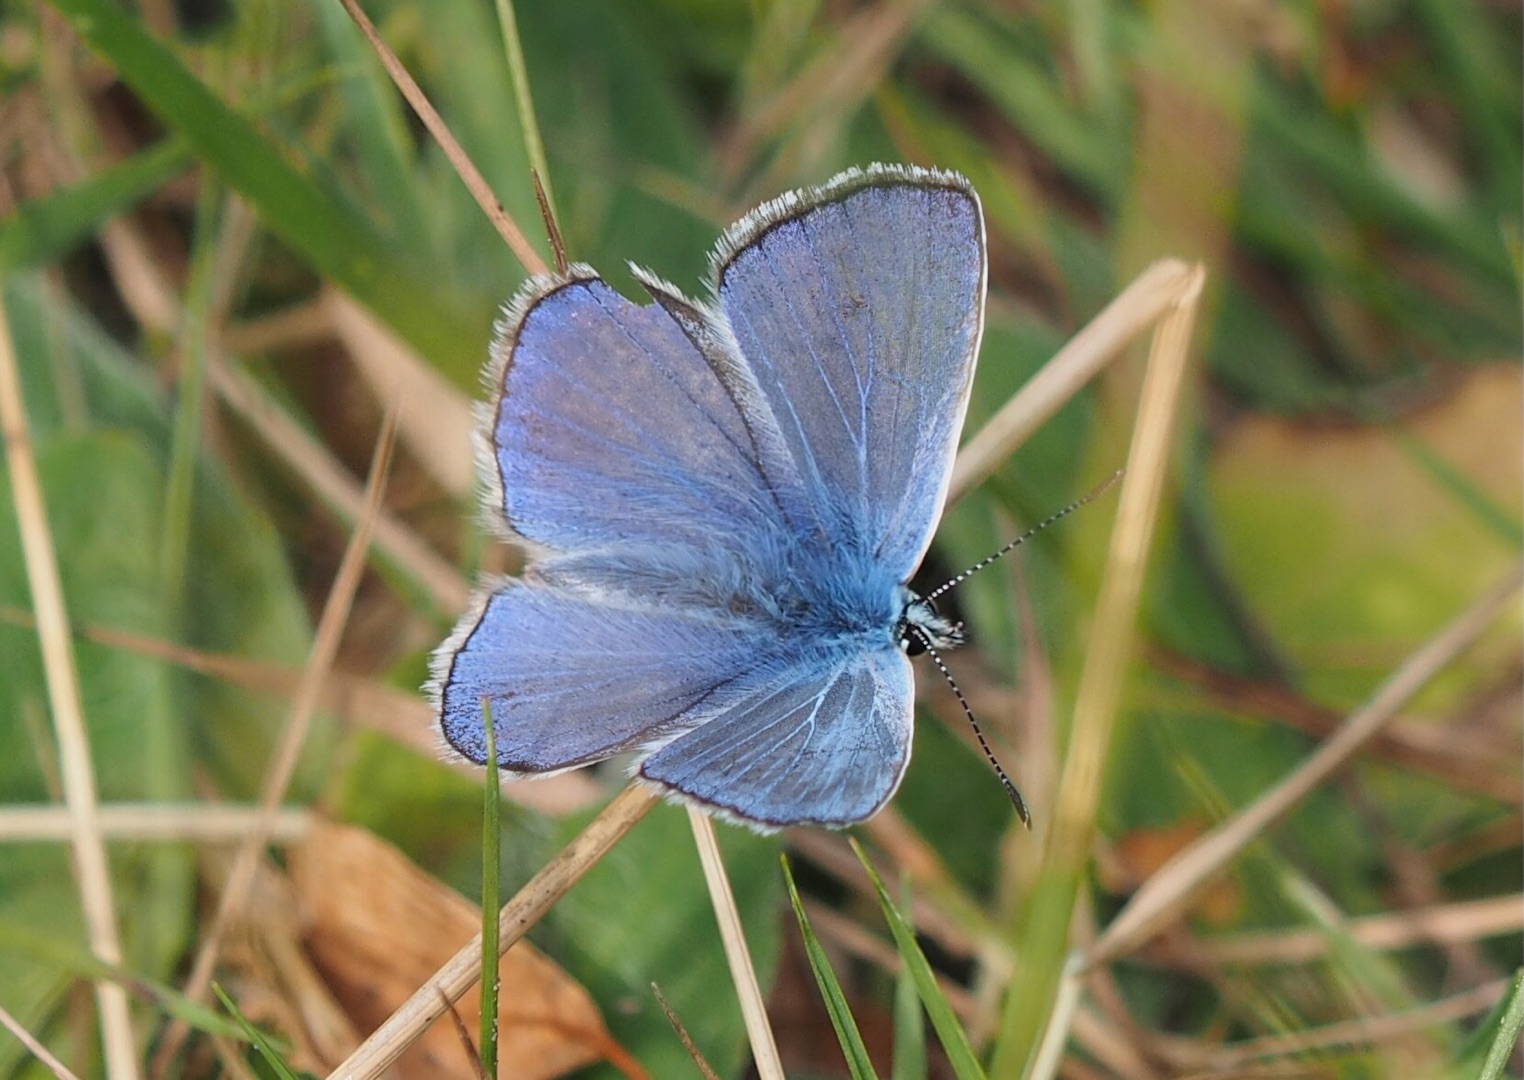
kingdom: Animalia
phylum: Arthropoda
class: Insecta
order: Lepidoptera
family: Lycaenidae
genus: Polyommatus
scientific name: Polyommatus icarus
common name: Almindelig blåfugl
